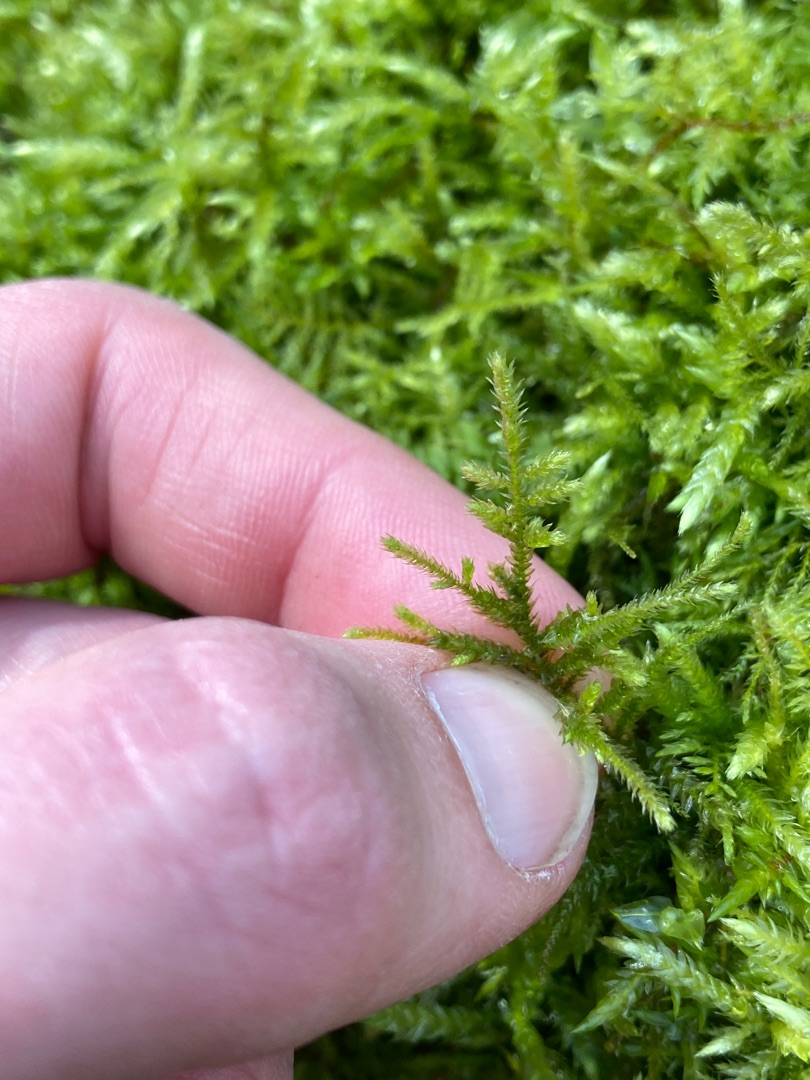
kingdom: Plantae
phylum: Bryophyta
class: Bryopsida
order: Hypnales
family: Brachytheciaceae
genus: Eurhynchium
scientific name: Eurhynchium striatum
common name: Stribet næbmos
